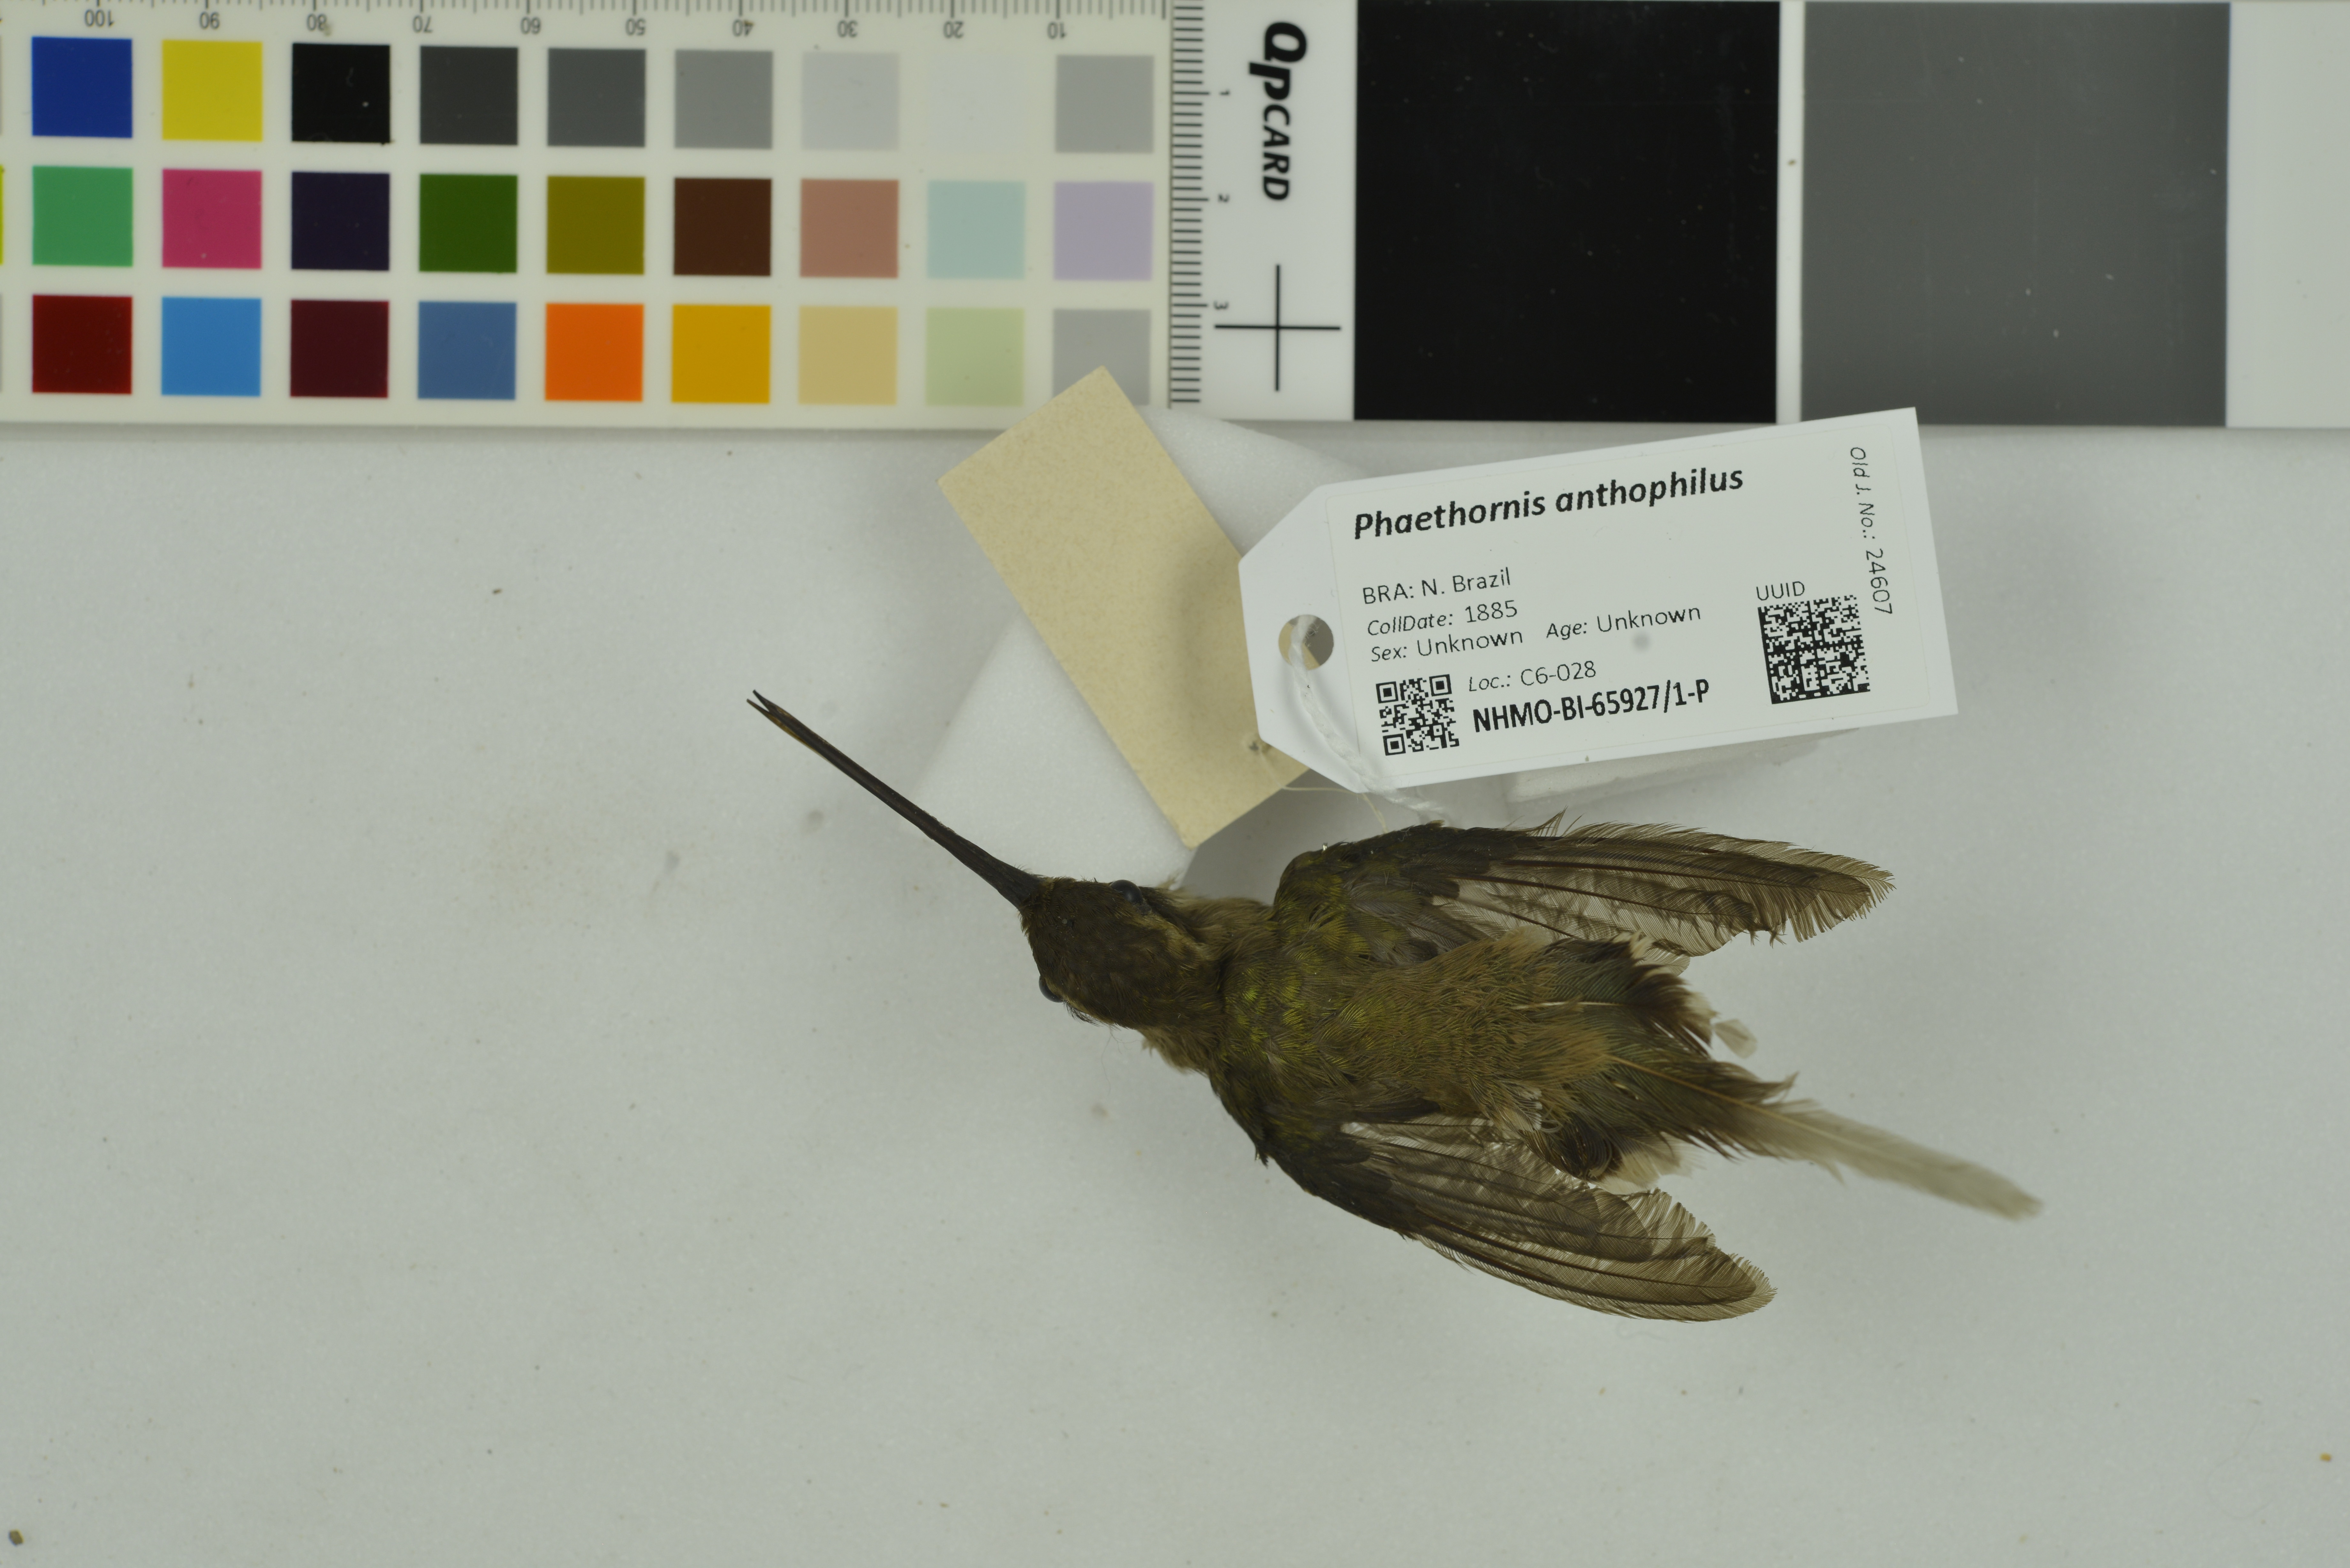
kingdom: Animalia
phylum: Chordata
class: Aves
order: Apodiformes
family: Trochilidae
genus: Phaethornis
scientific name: Phaethornis anthophilus
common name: Pale-bellied hermit
